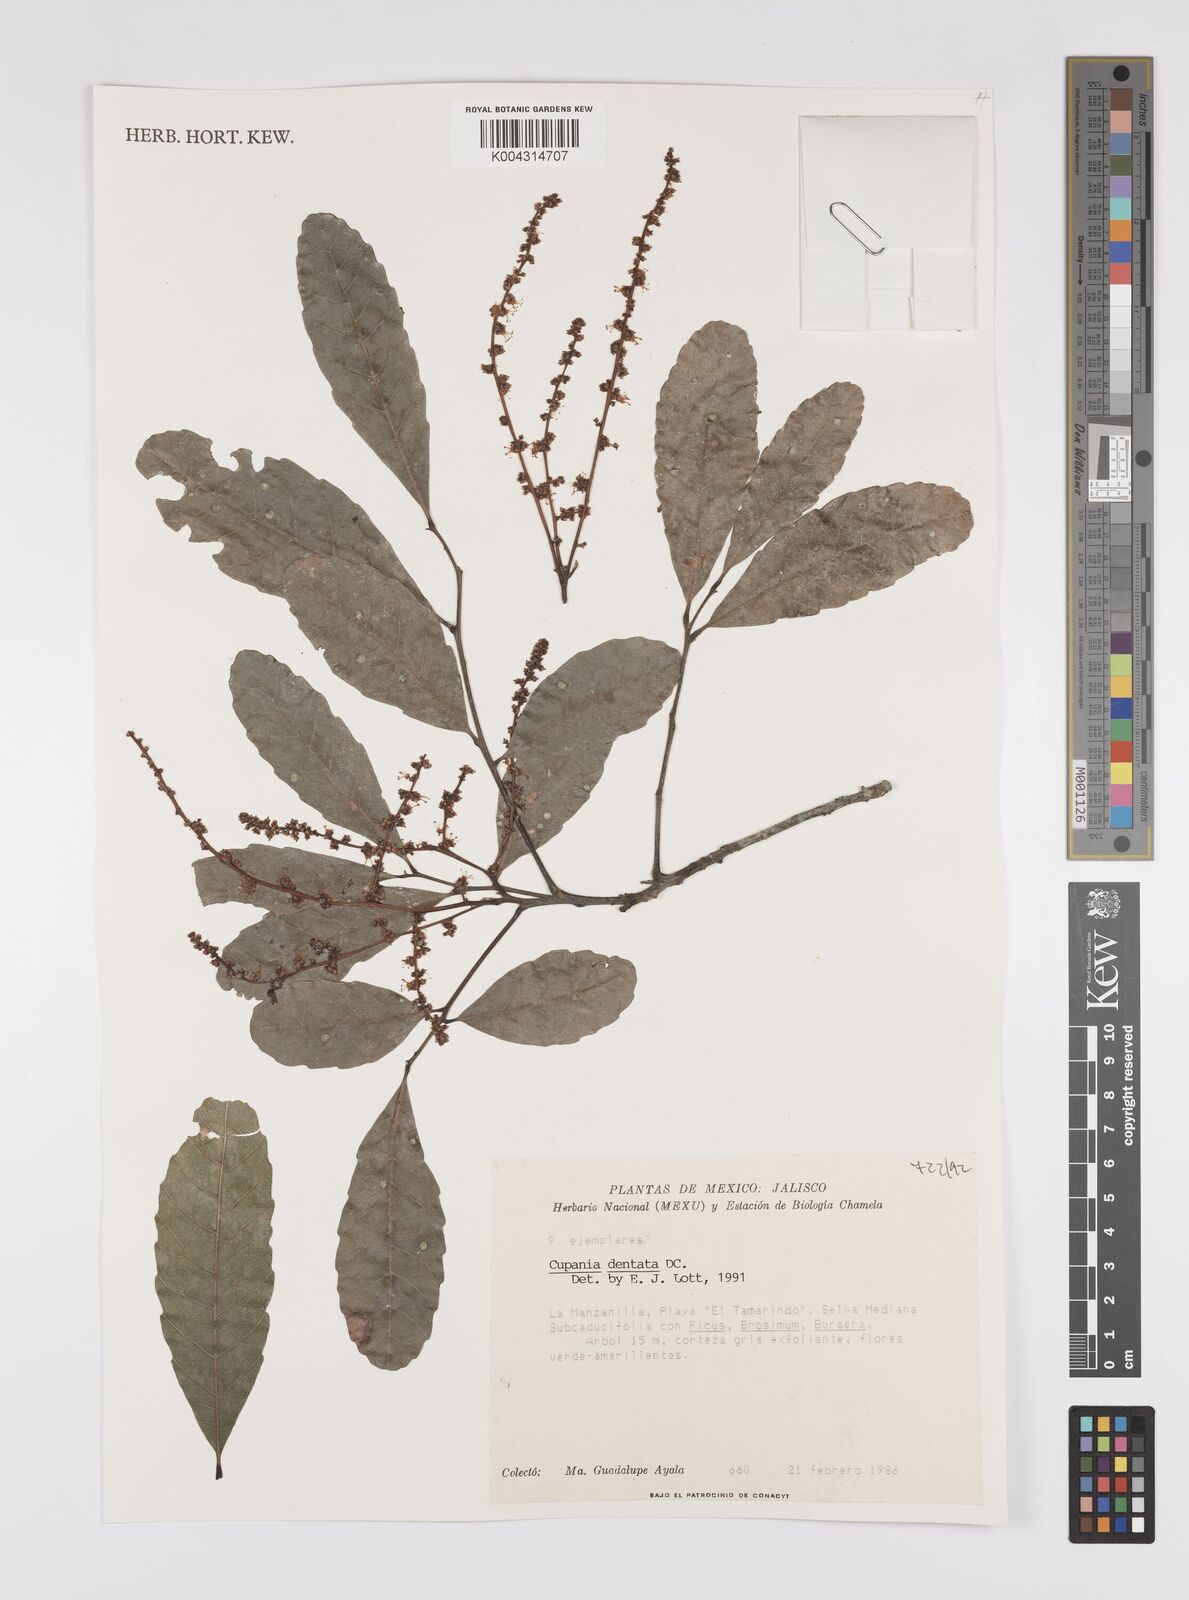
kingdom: Plantae
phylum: Tracheophyta
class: Magnoliopsida
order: Sapindales
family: Sapindaceae
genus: Cupania
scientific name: Cupania dentata
